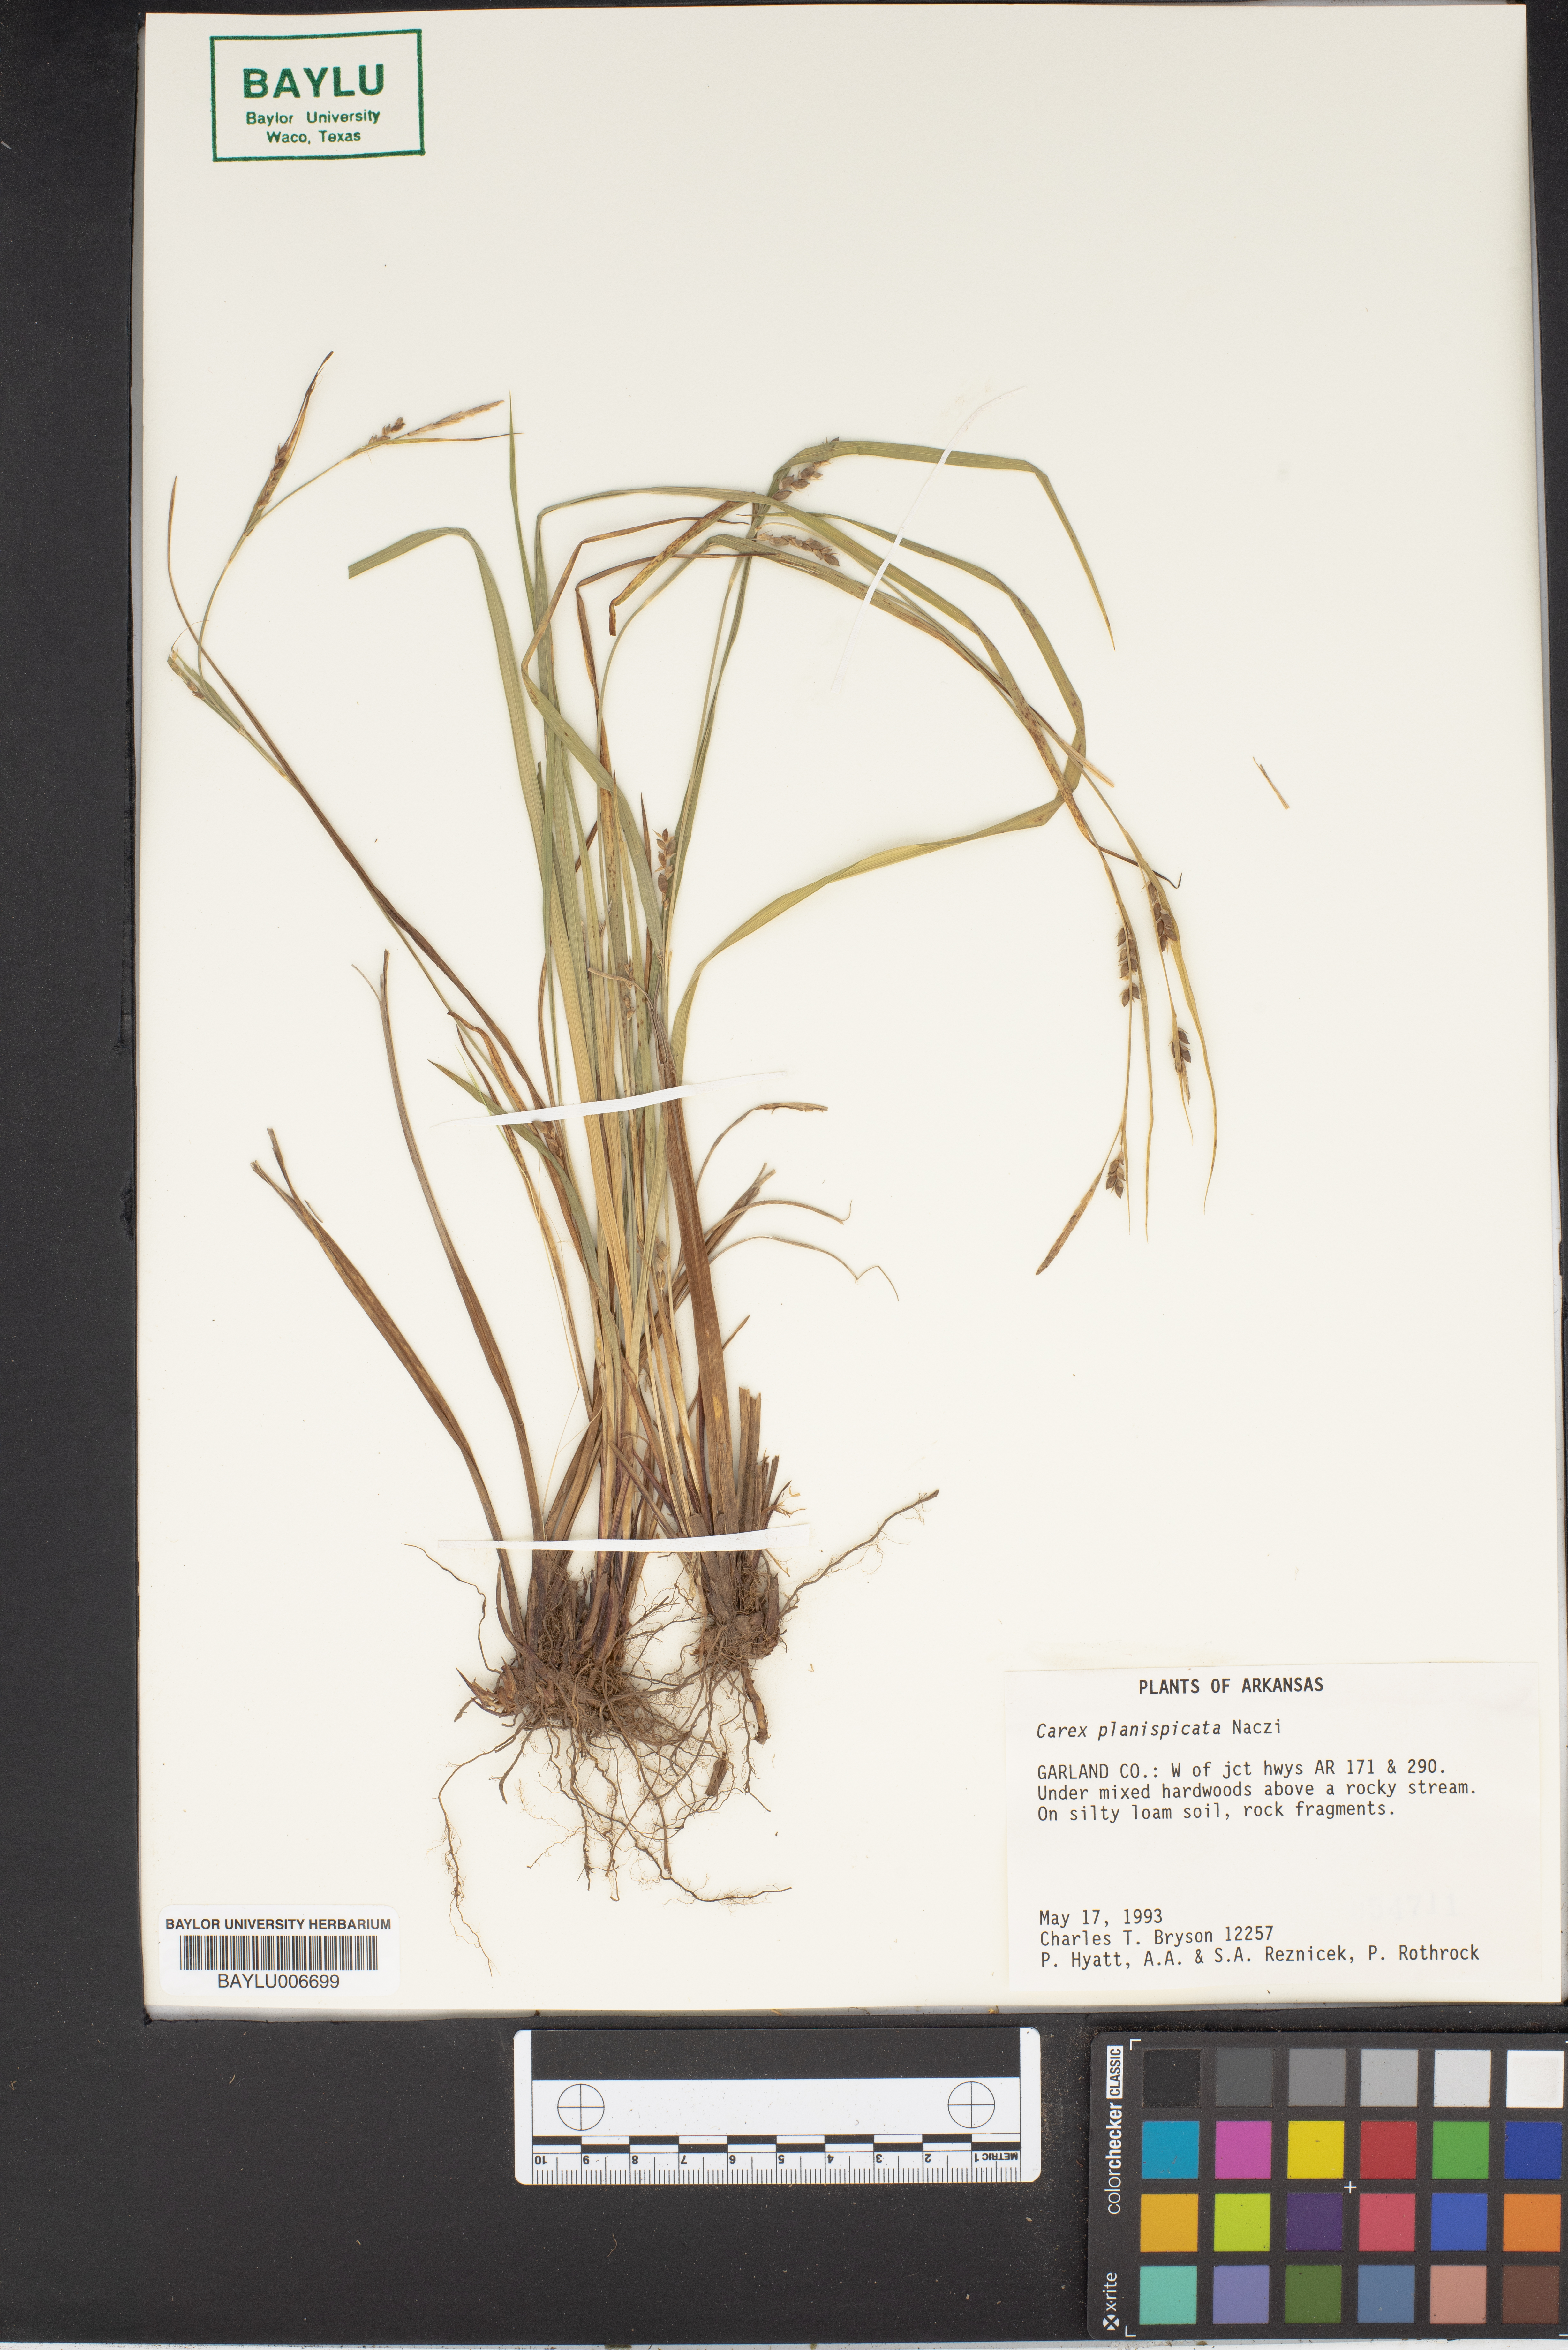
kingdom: Plantae
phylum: Tracheophyta
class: Liliopsida
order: Poales
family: Cyperaceae
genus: Carex
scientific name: Carex planispicata
